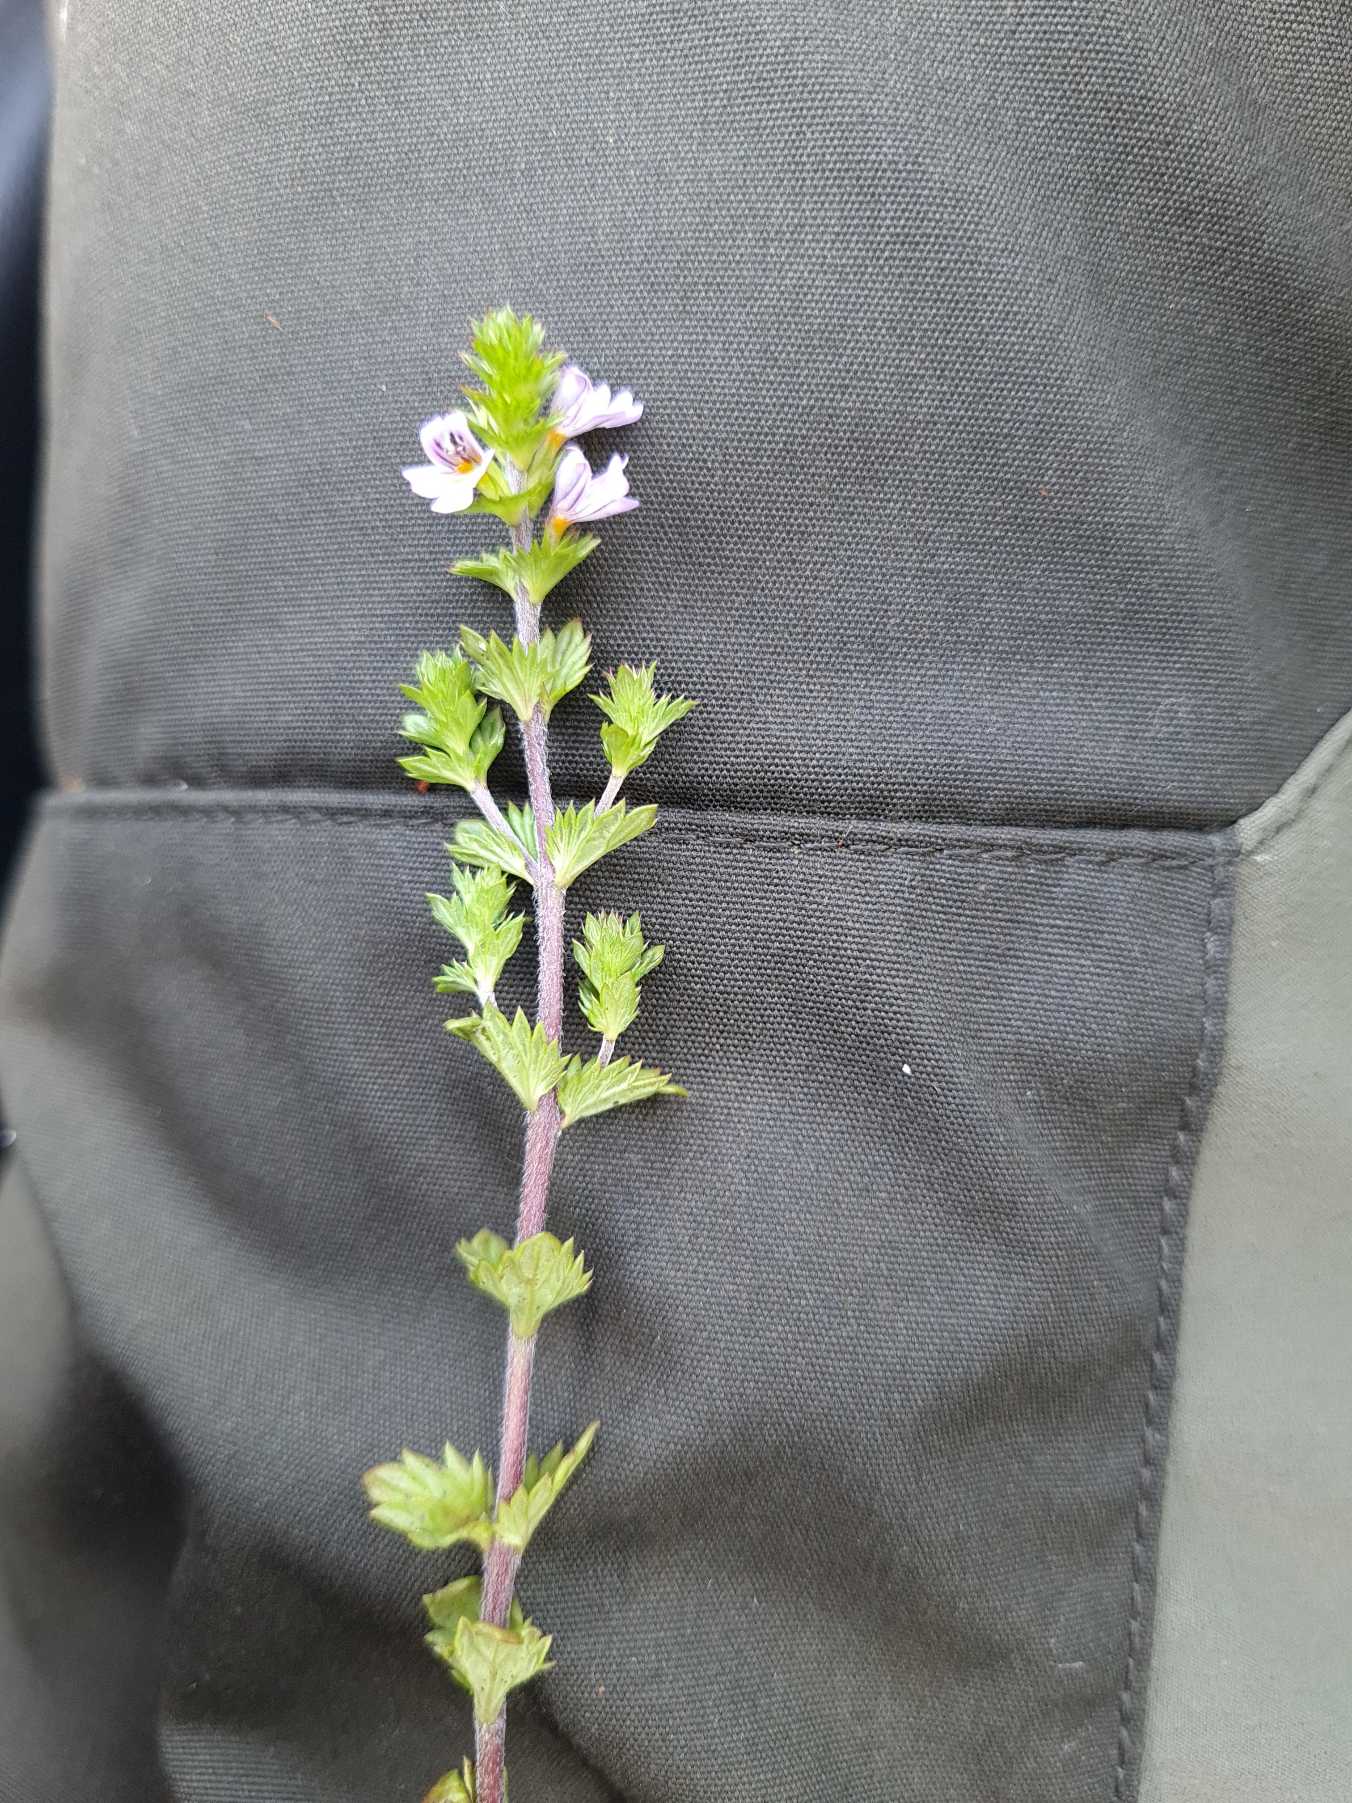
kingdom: Plantae
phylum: Tracheophyta
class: Magnoliopsida
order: Lamiales
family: Orobanchaceae
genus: Euphrasia
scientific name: Euphrasia stricta
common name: Spids øjentrøst
